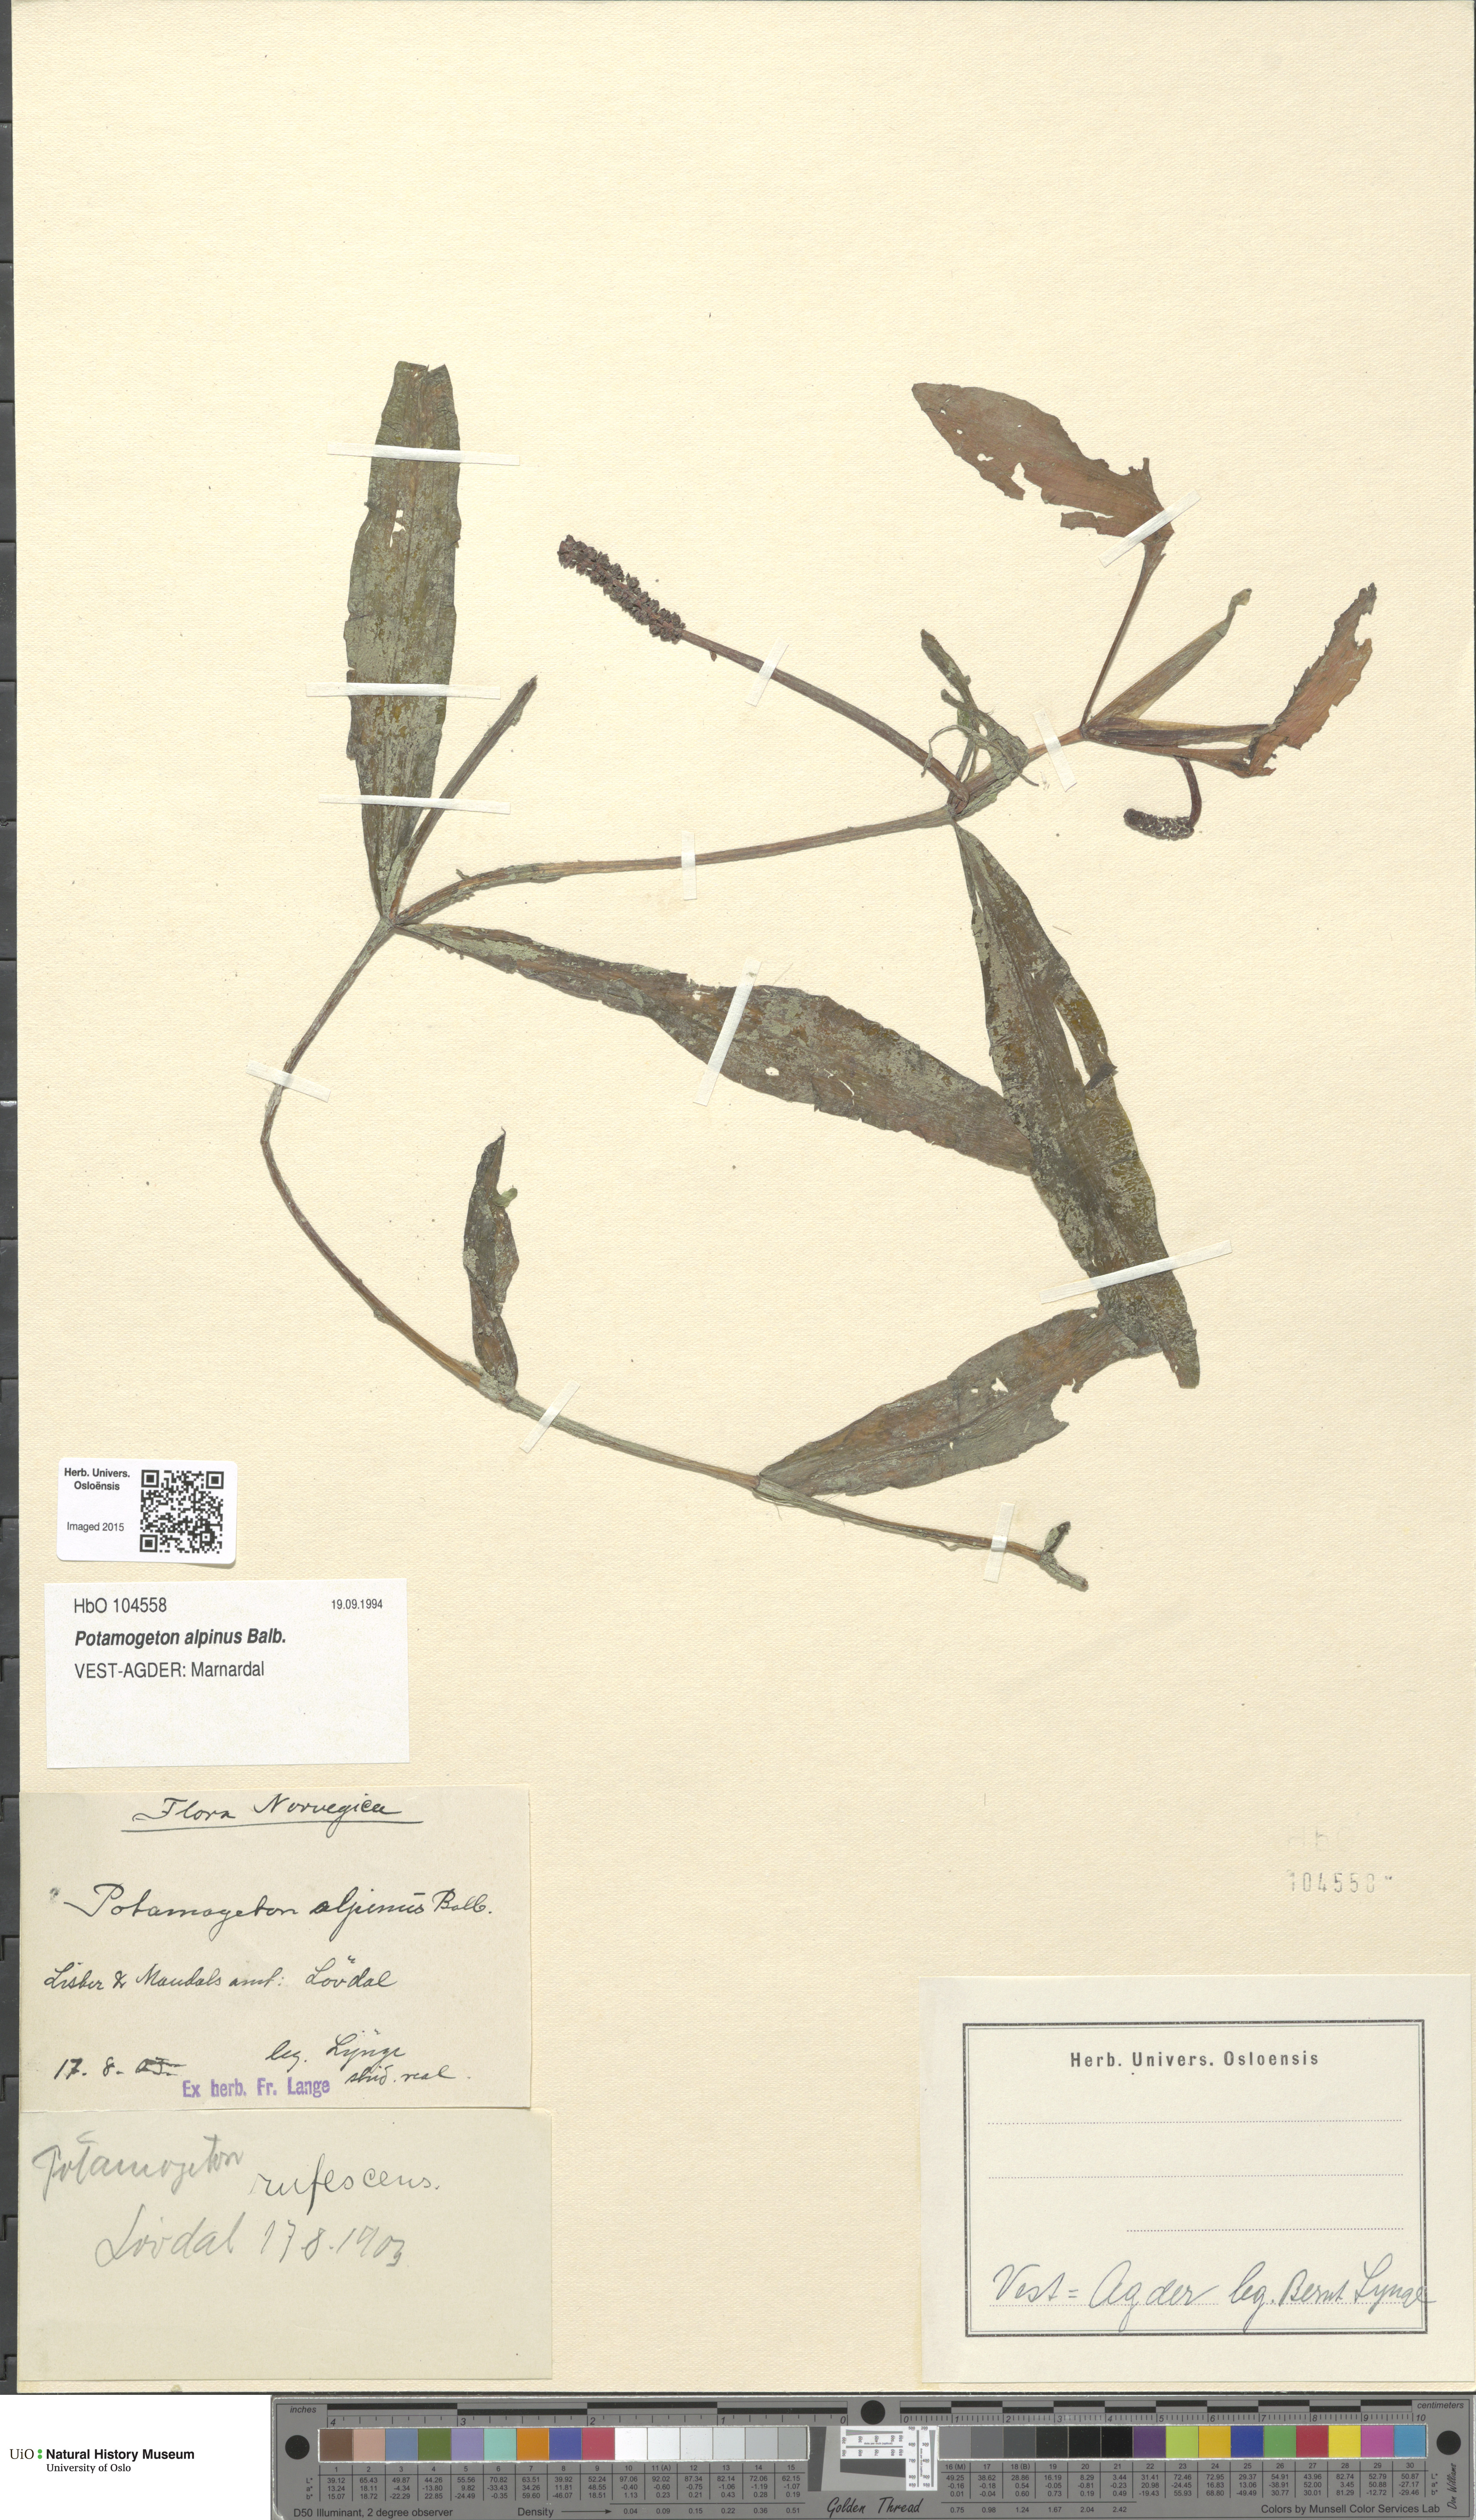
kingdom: Plantae
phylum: Tracheophyta
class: Liliopsida
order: Alismatales
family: Potamogetonaceae
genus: Potamogeton
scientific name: Potamogeton alpinus
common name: Red pondweed
